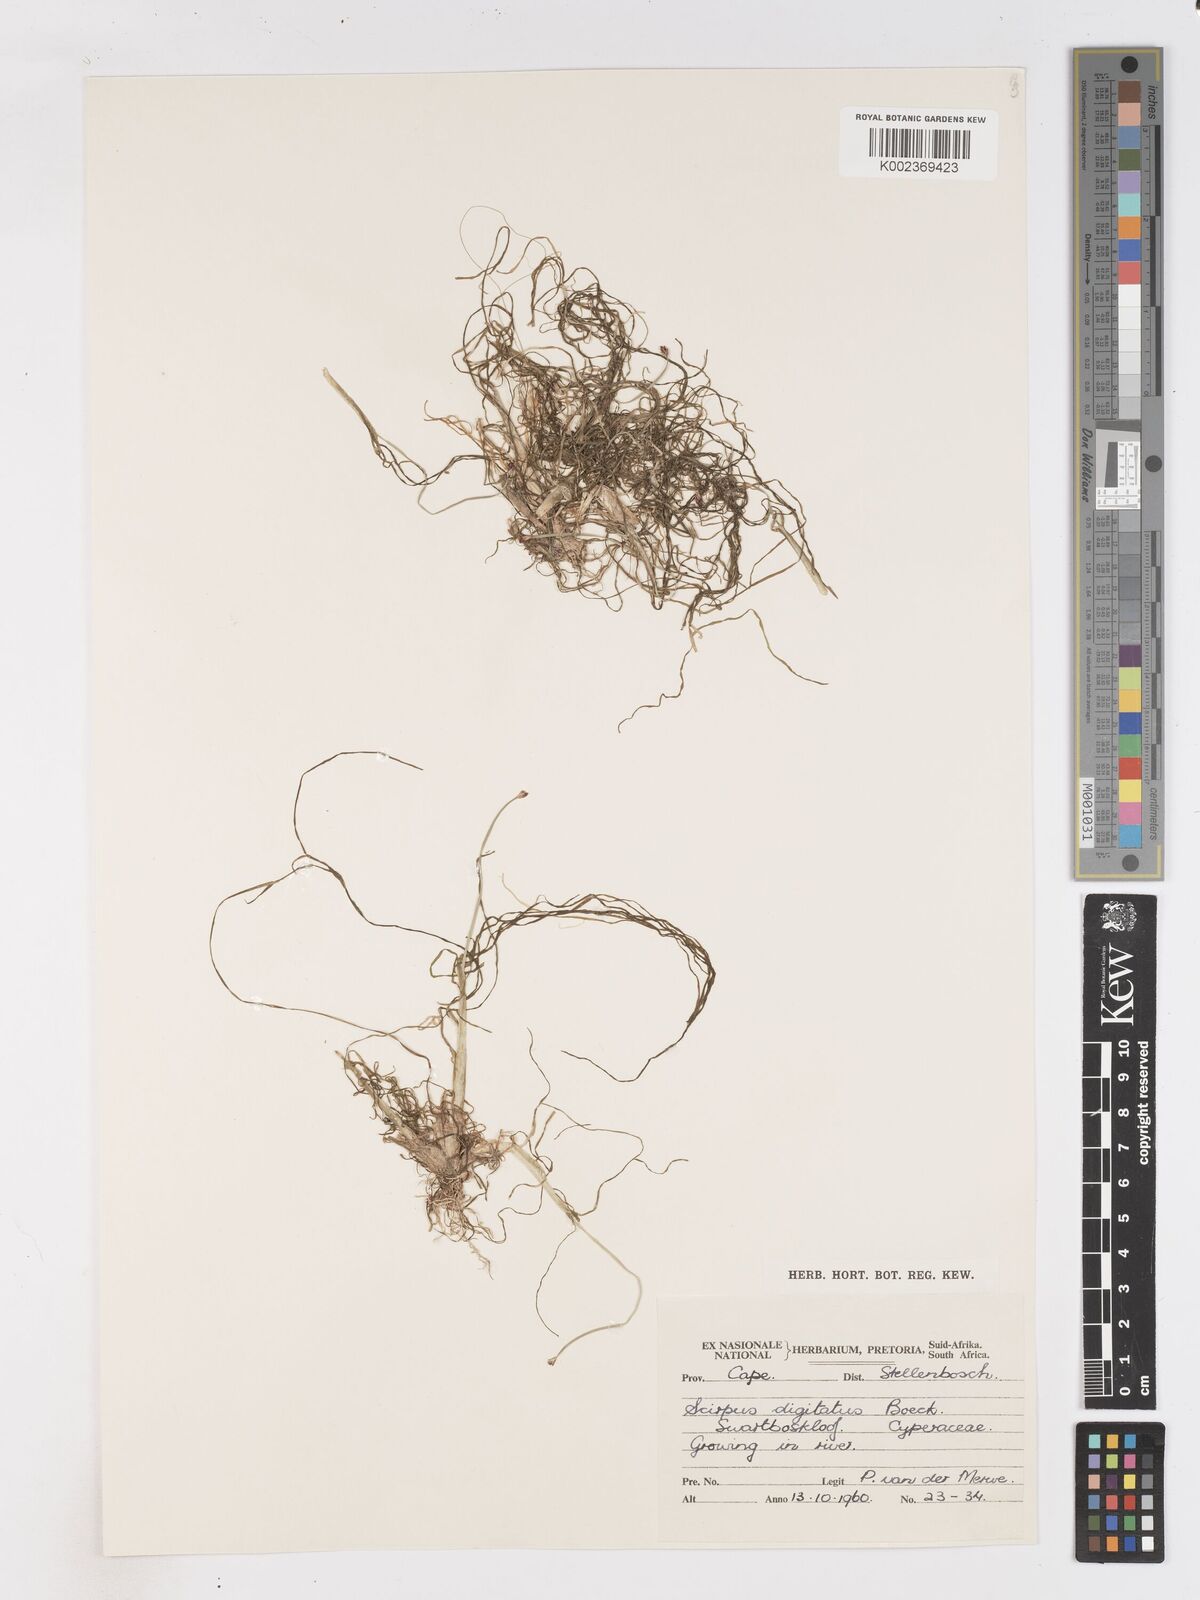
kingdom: Plantae
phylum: Tracheophyta
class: Liliopsida
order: Poales
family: Cyperaceae
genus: Isolepis
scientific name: Isolepis digitata
